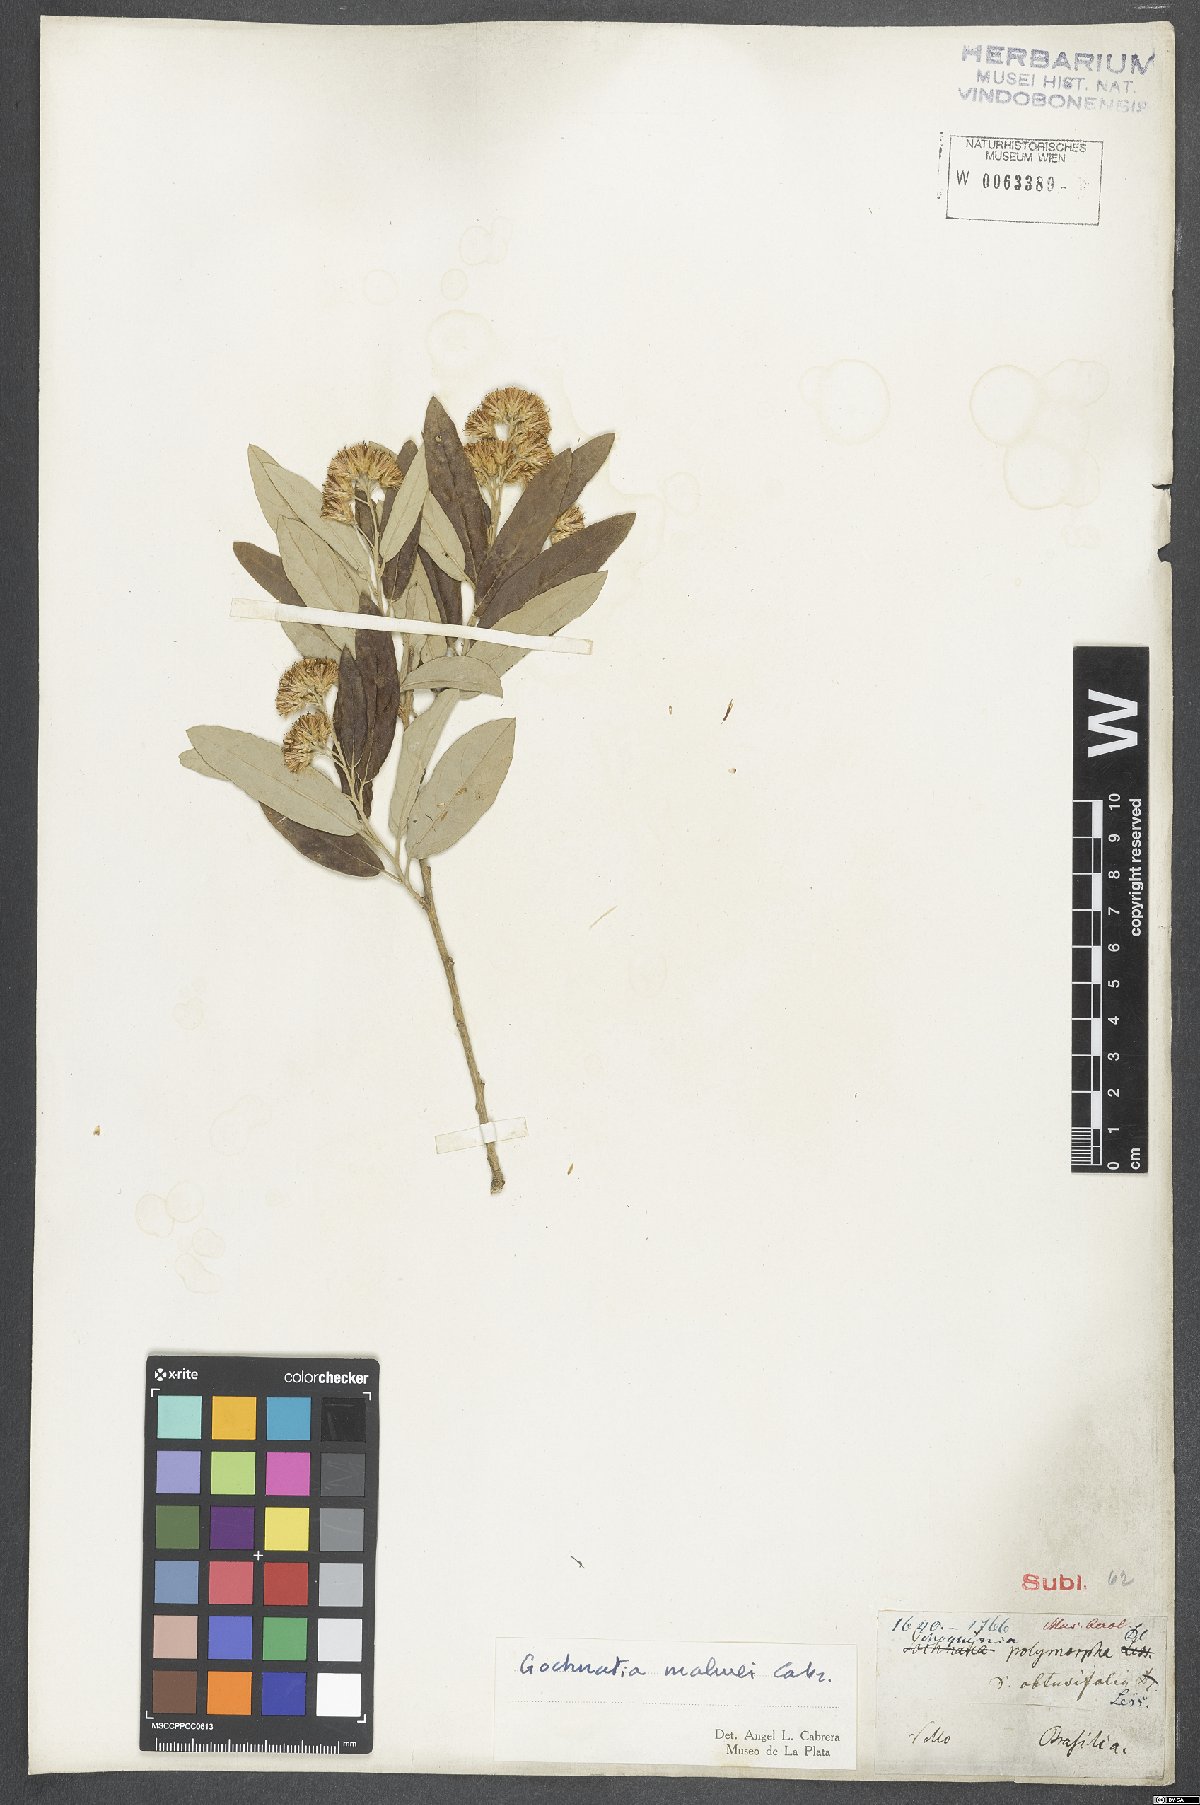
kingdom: Plantae
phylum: Tracheophyta
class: Magnoliopsida
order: Asterales
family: Asteraceae
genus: Moquiniastrum
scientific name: Moquiniastrum polymorphum
